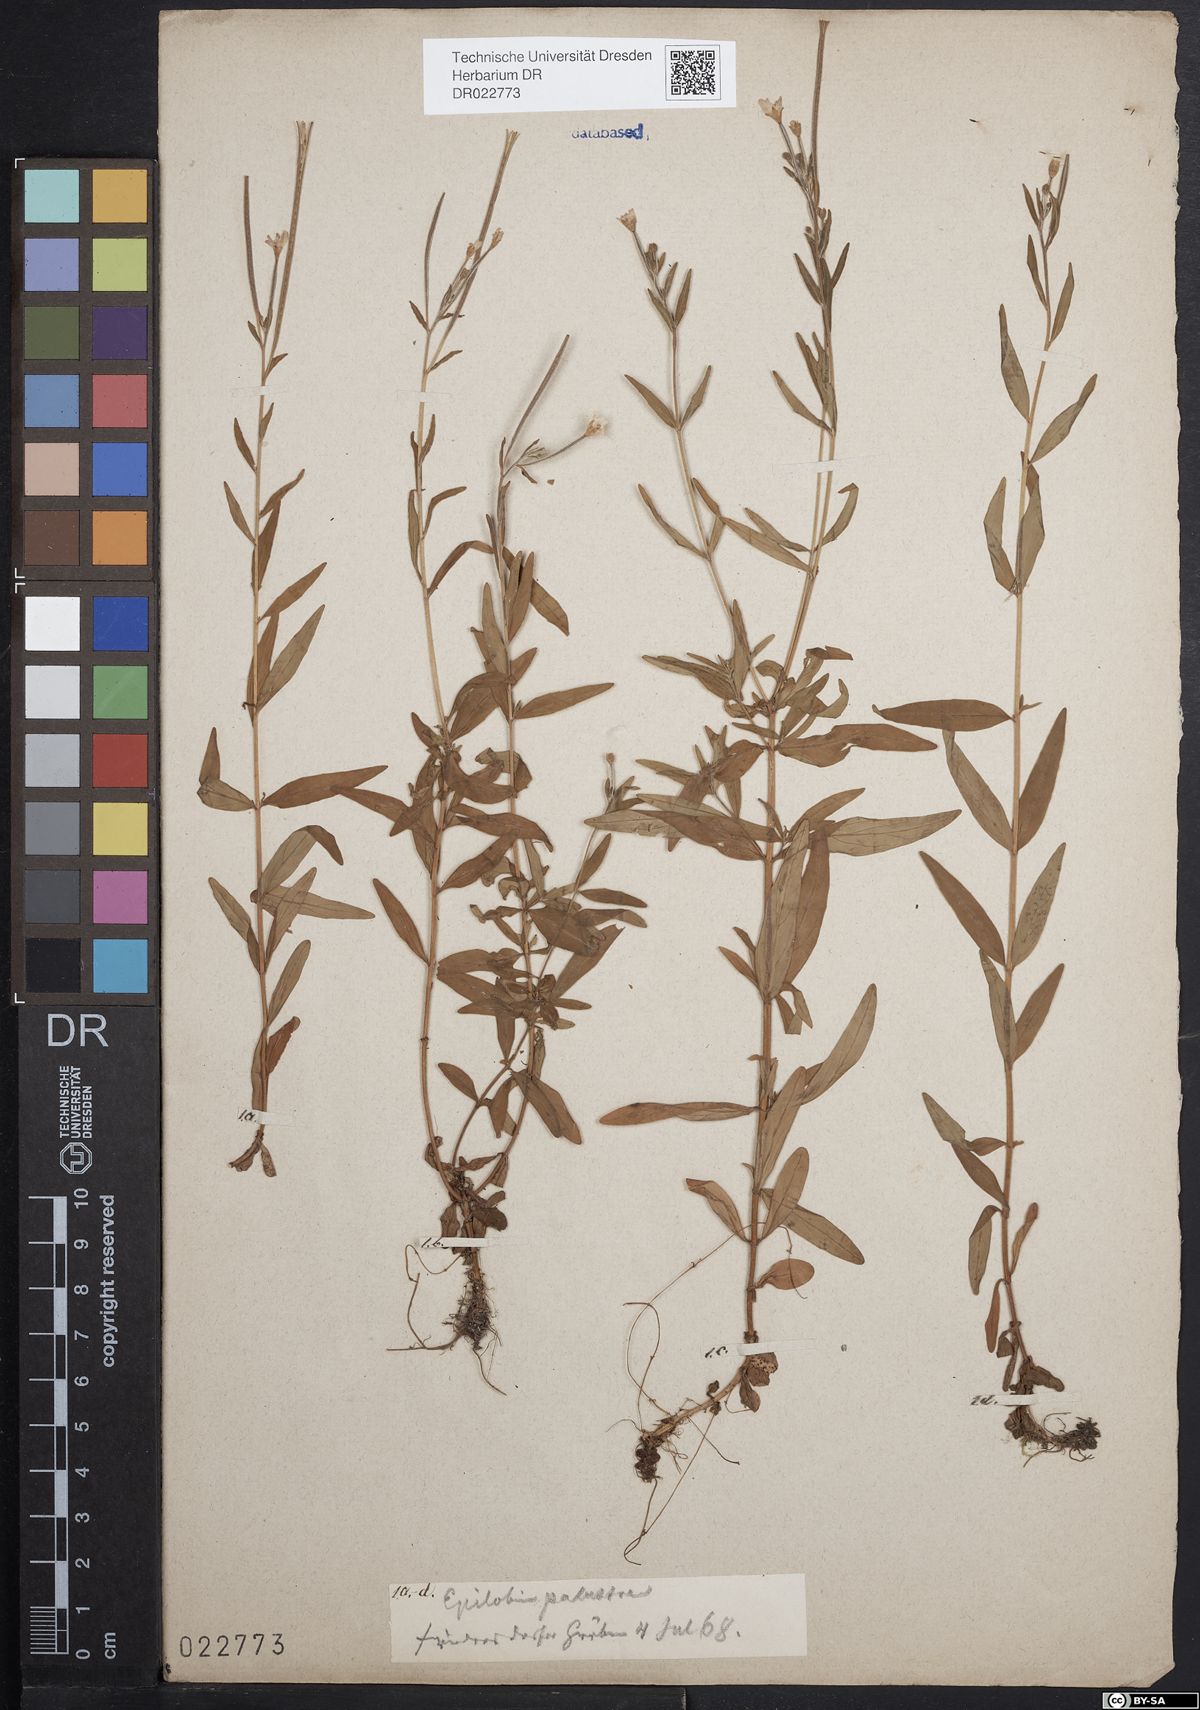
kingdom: Plantae
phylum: Tracheophyta
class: Magnoliopsida
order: Myrtales
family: Onagraceae
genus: Epilobium
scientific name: Epilobium palustre
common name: Marsh willowherb
